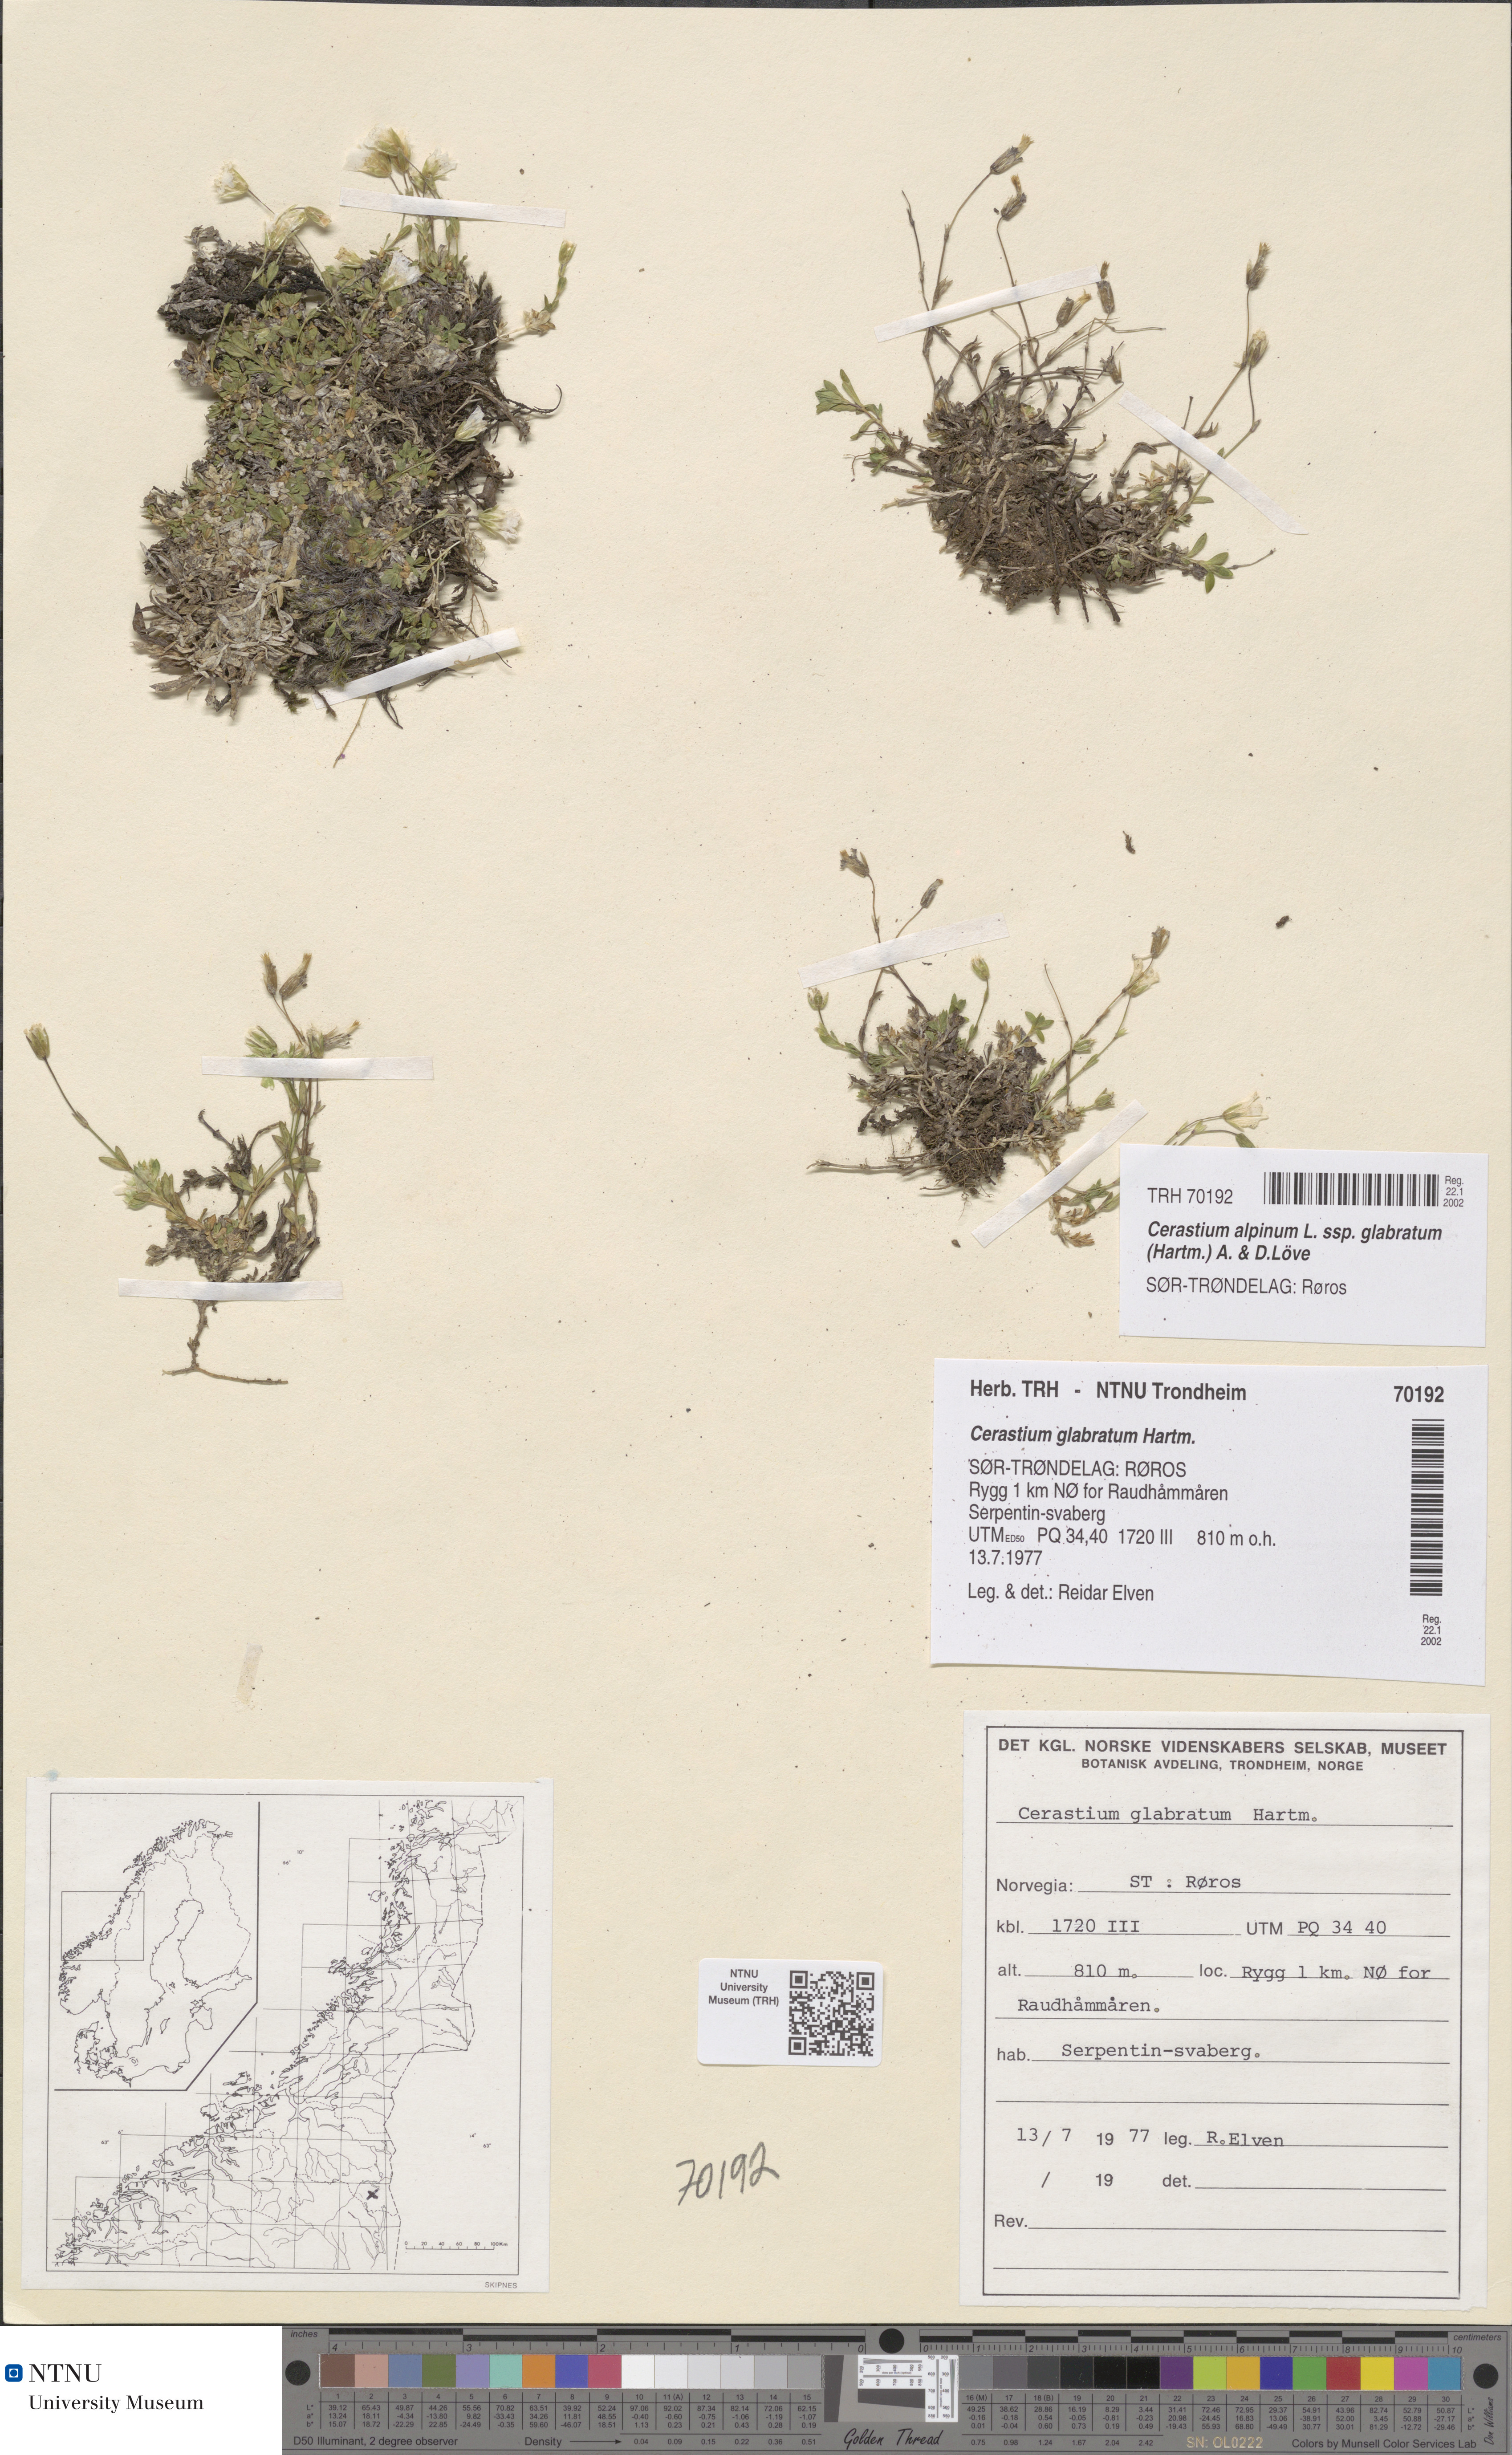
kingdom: Plantae
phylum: Tracheophyta
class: Magnoliopsida
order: Caryophyllales
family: Caryophyllaceae
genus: Cerastium
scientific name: Cerastium alpinum
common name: Alpine mouse-ear
